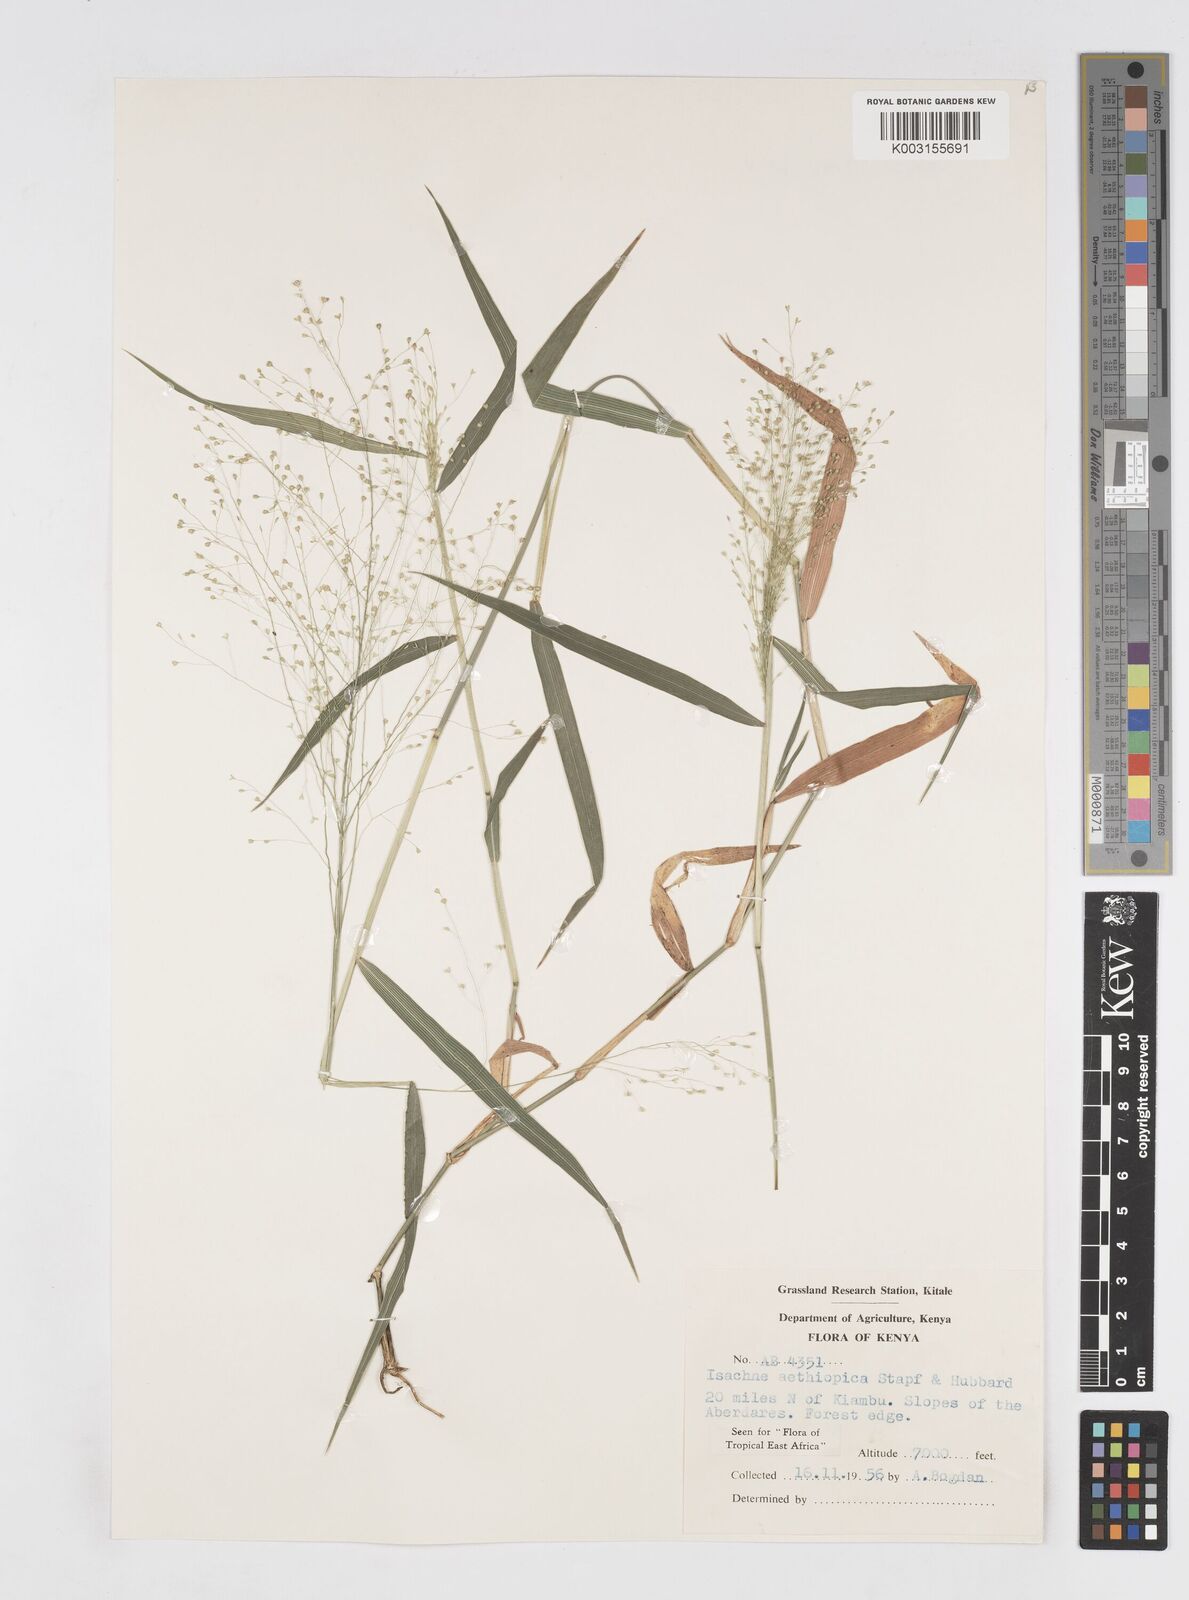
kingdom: Plantae
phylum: Tracheophyta
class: Liliopsida
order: Poales
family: Poaceae
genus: Isachne
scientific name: Isachne mauritiana
